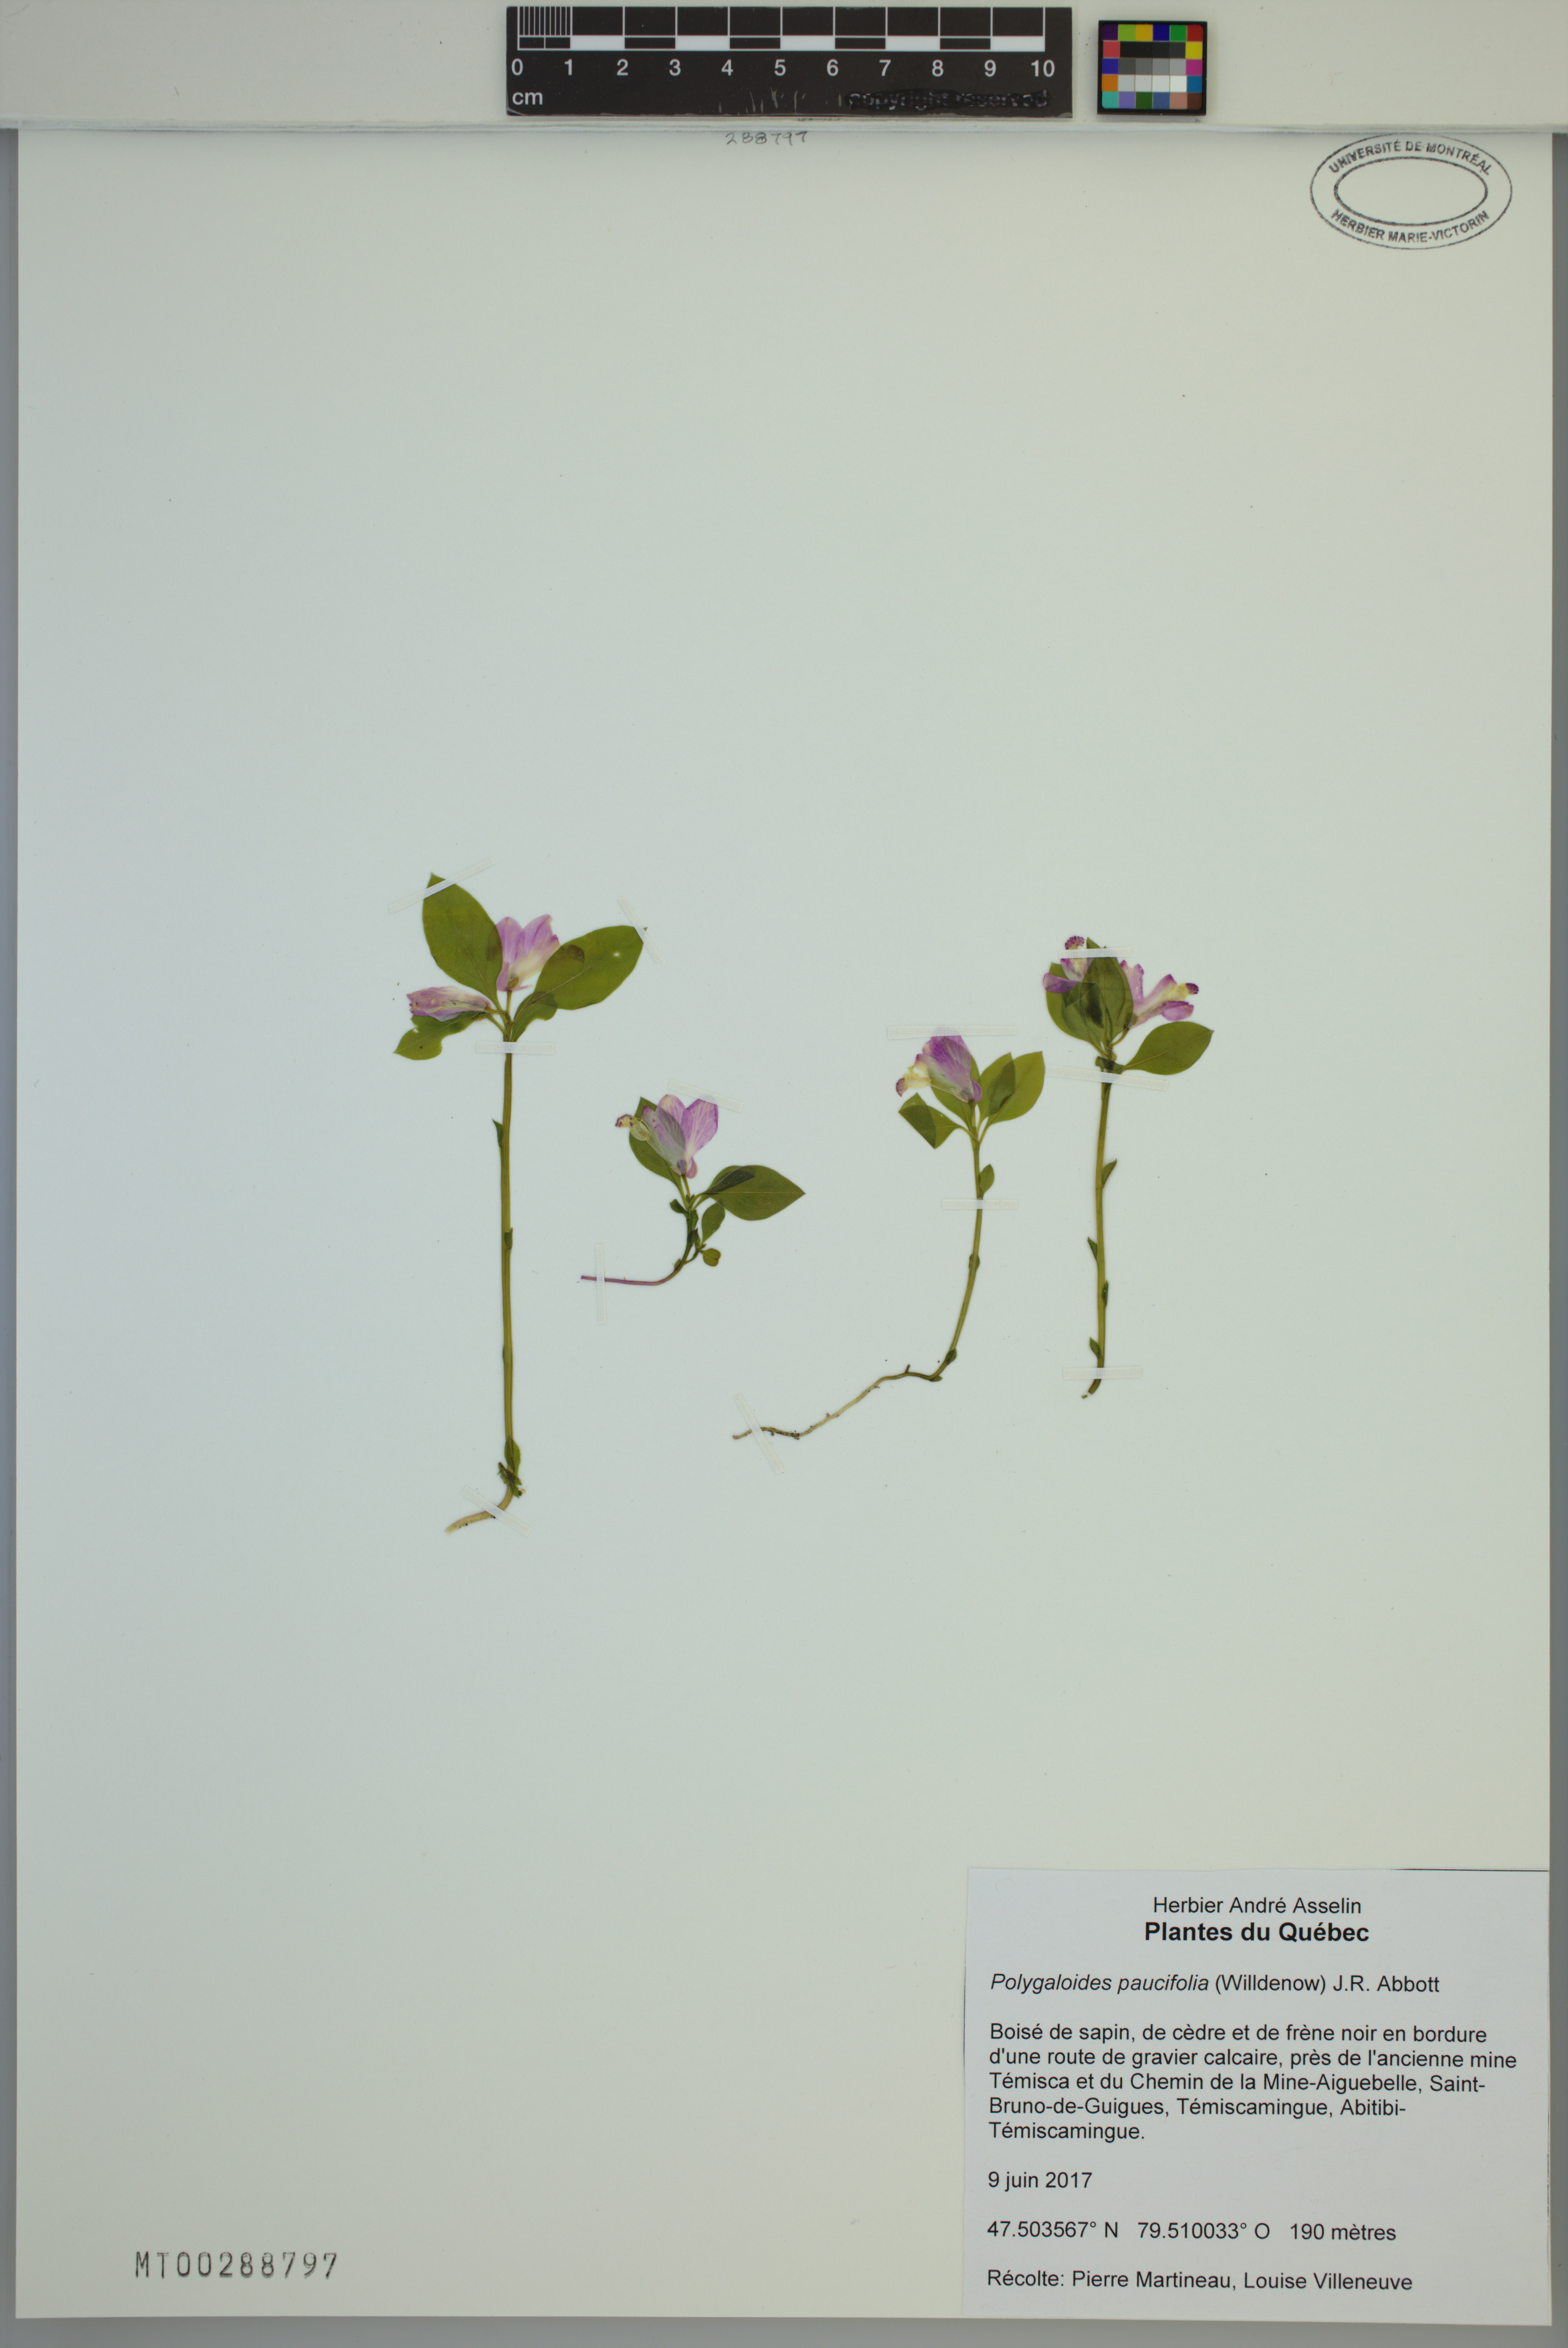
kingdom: Plantae
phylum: Tracheophyta
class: Magnoliopsida
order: Fabales
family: Polygalaceae
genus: Polygaloides
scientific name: Polygaloides paucifolia
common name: Bird-on-the-wing
